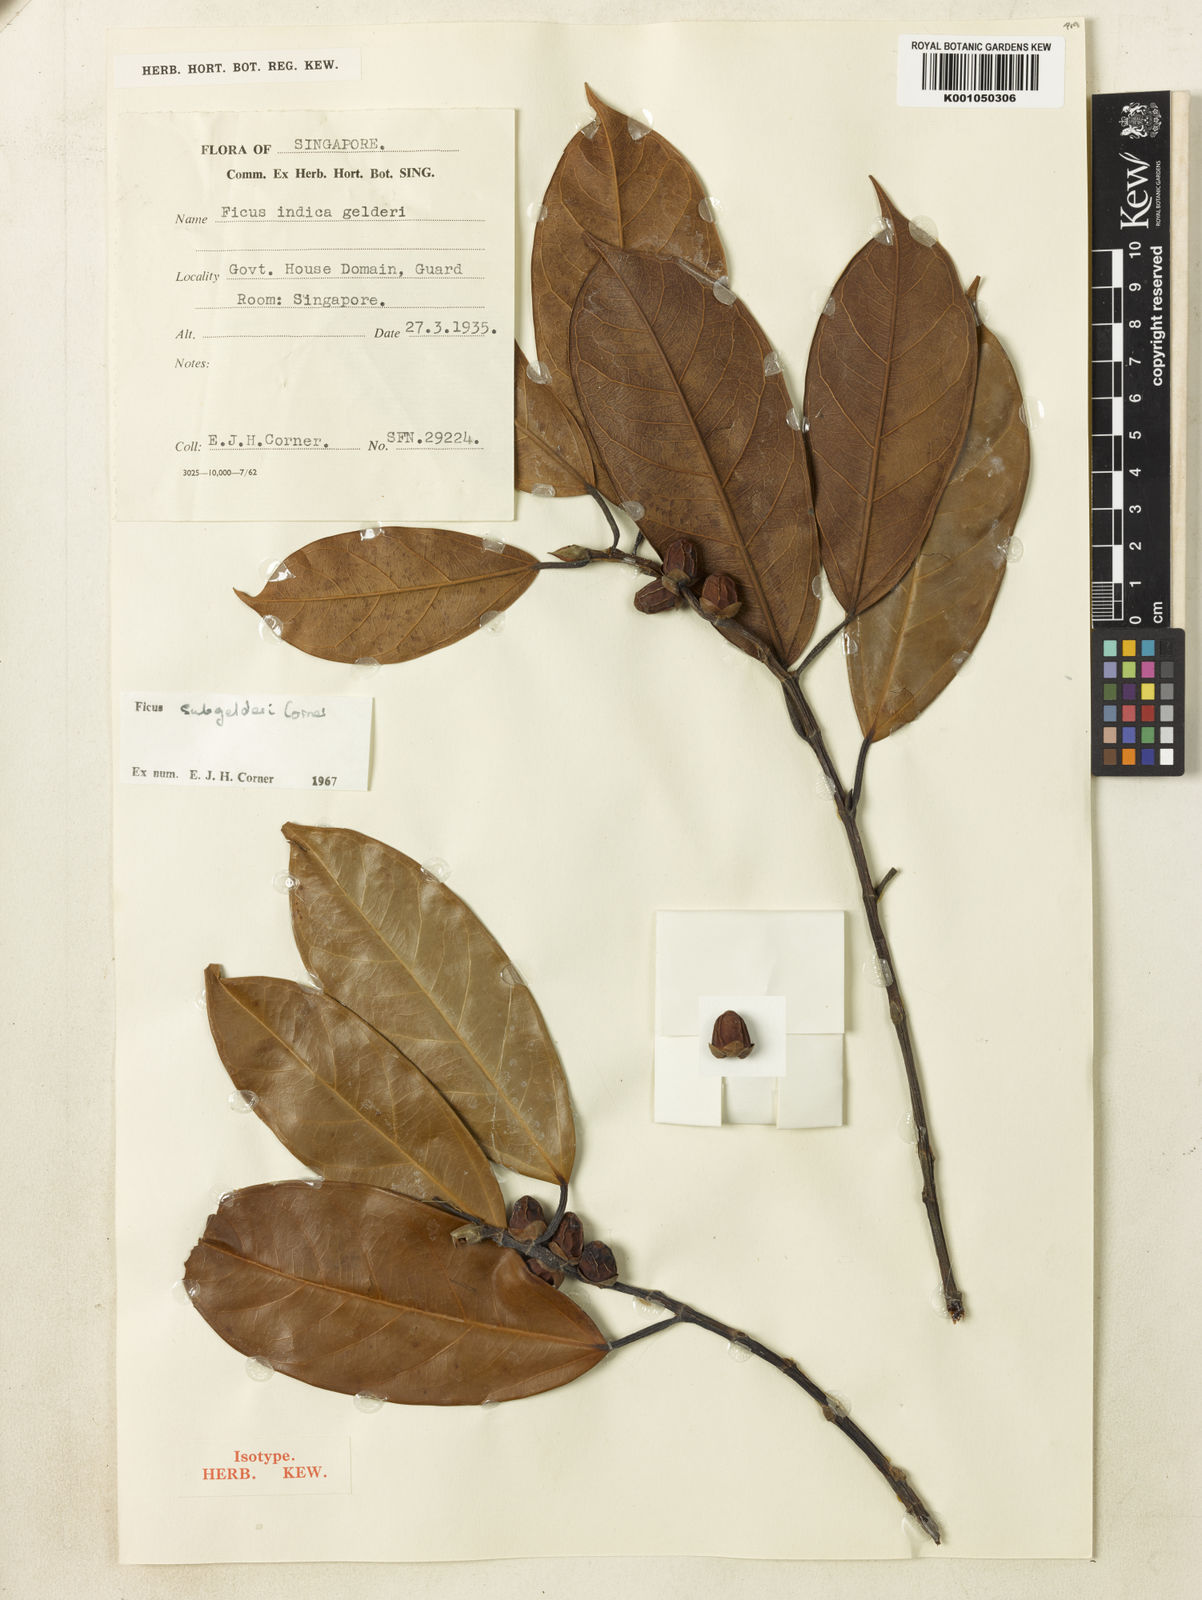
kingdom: Plantae
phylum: Tracheophyta
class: Magnoliopsida
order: Rosales
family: Moraceae
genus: Ficus
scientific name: Ficus subgelderi
